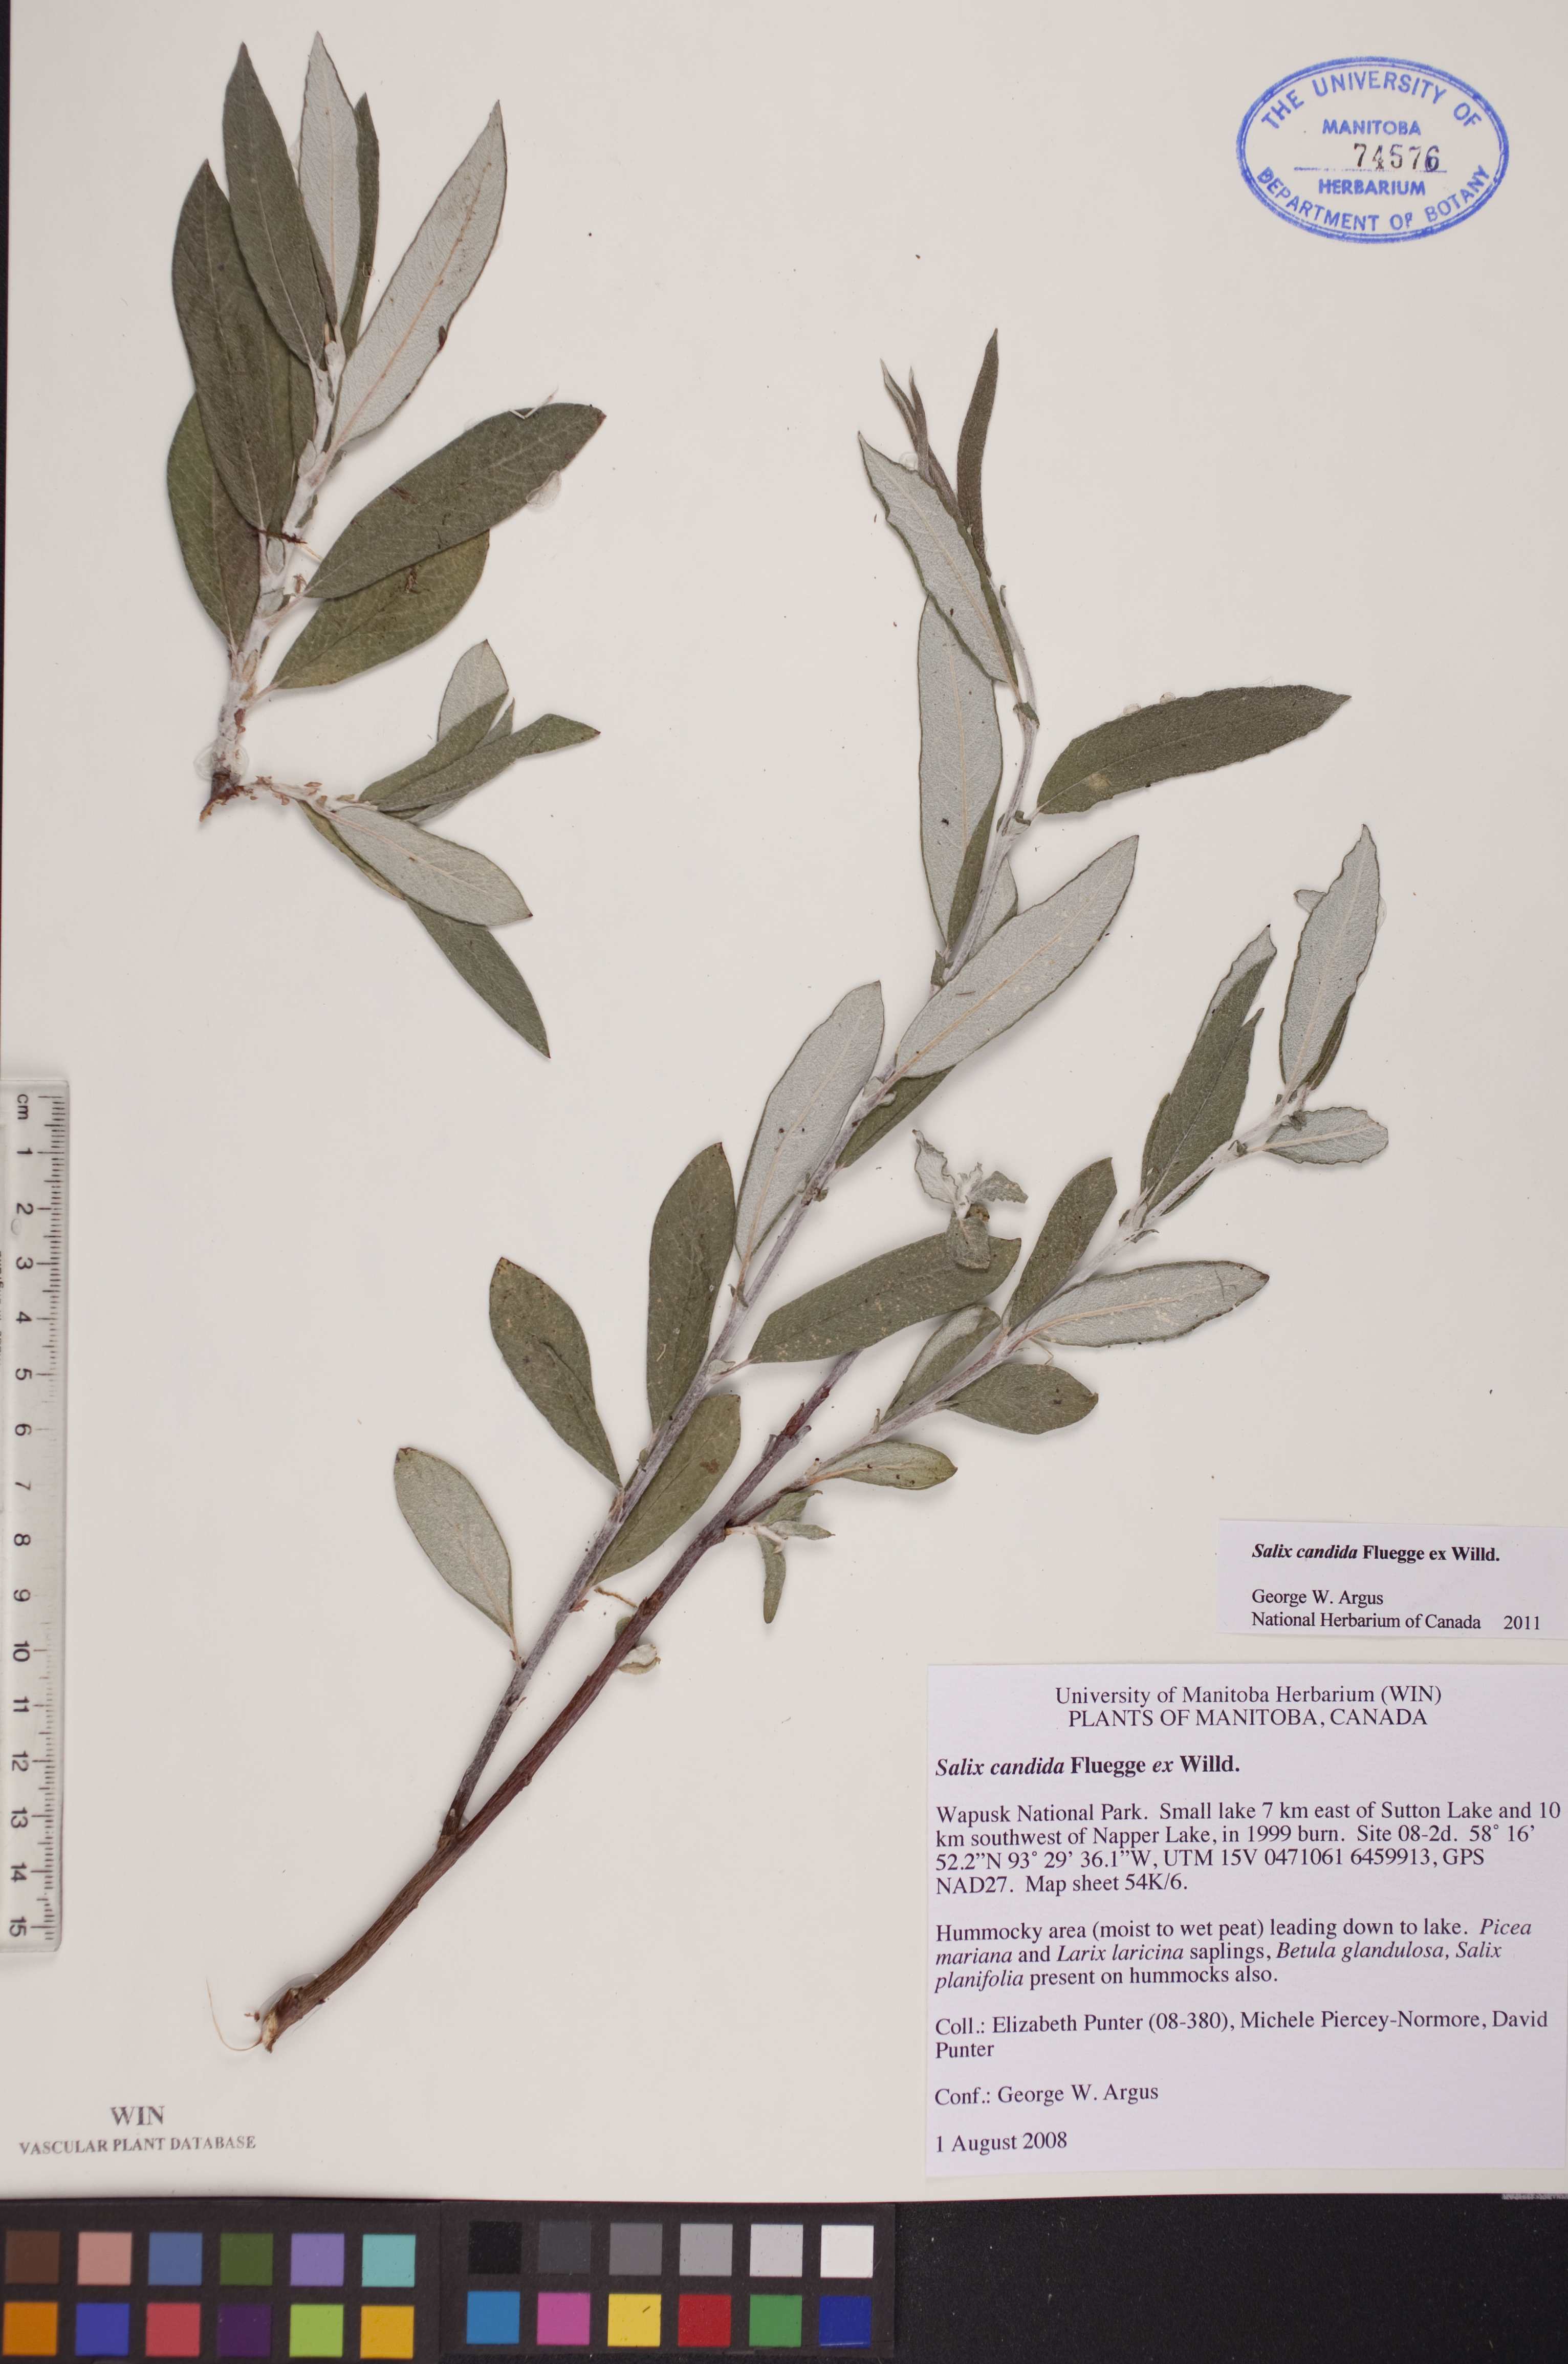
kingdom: Plantae
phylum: Tracheophyta
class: Magnoliopsida
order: Malpighiales
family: Salicaceae
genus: Salix
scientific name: Salix candida
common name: Hoary willow
